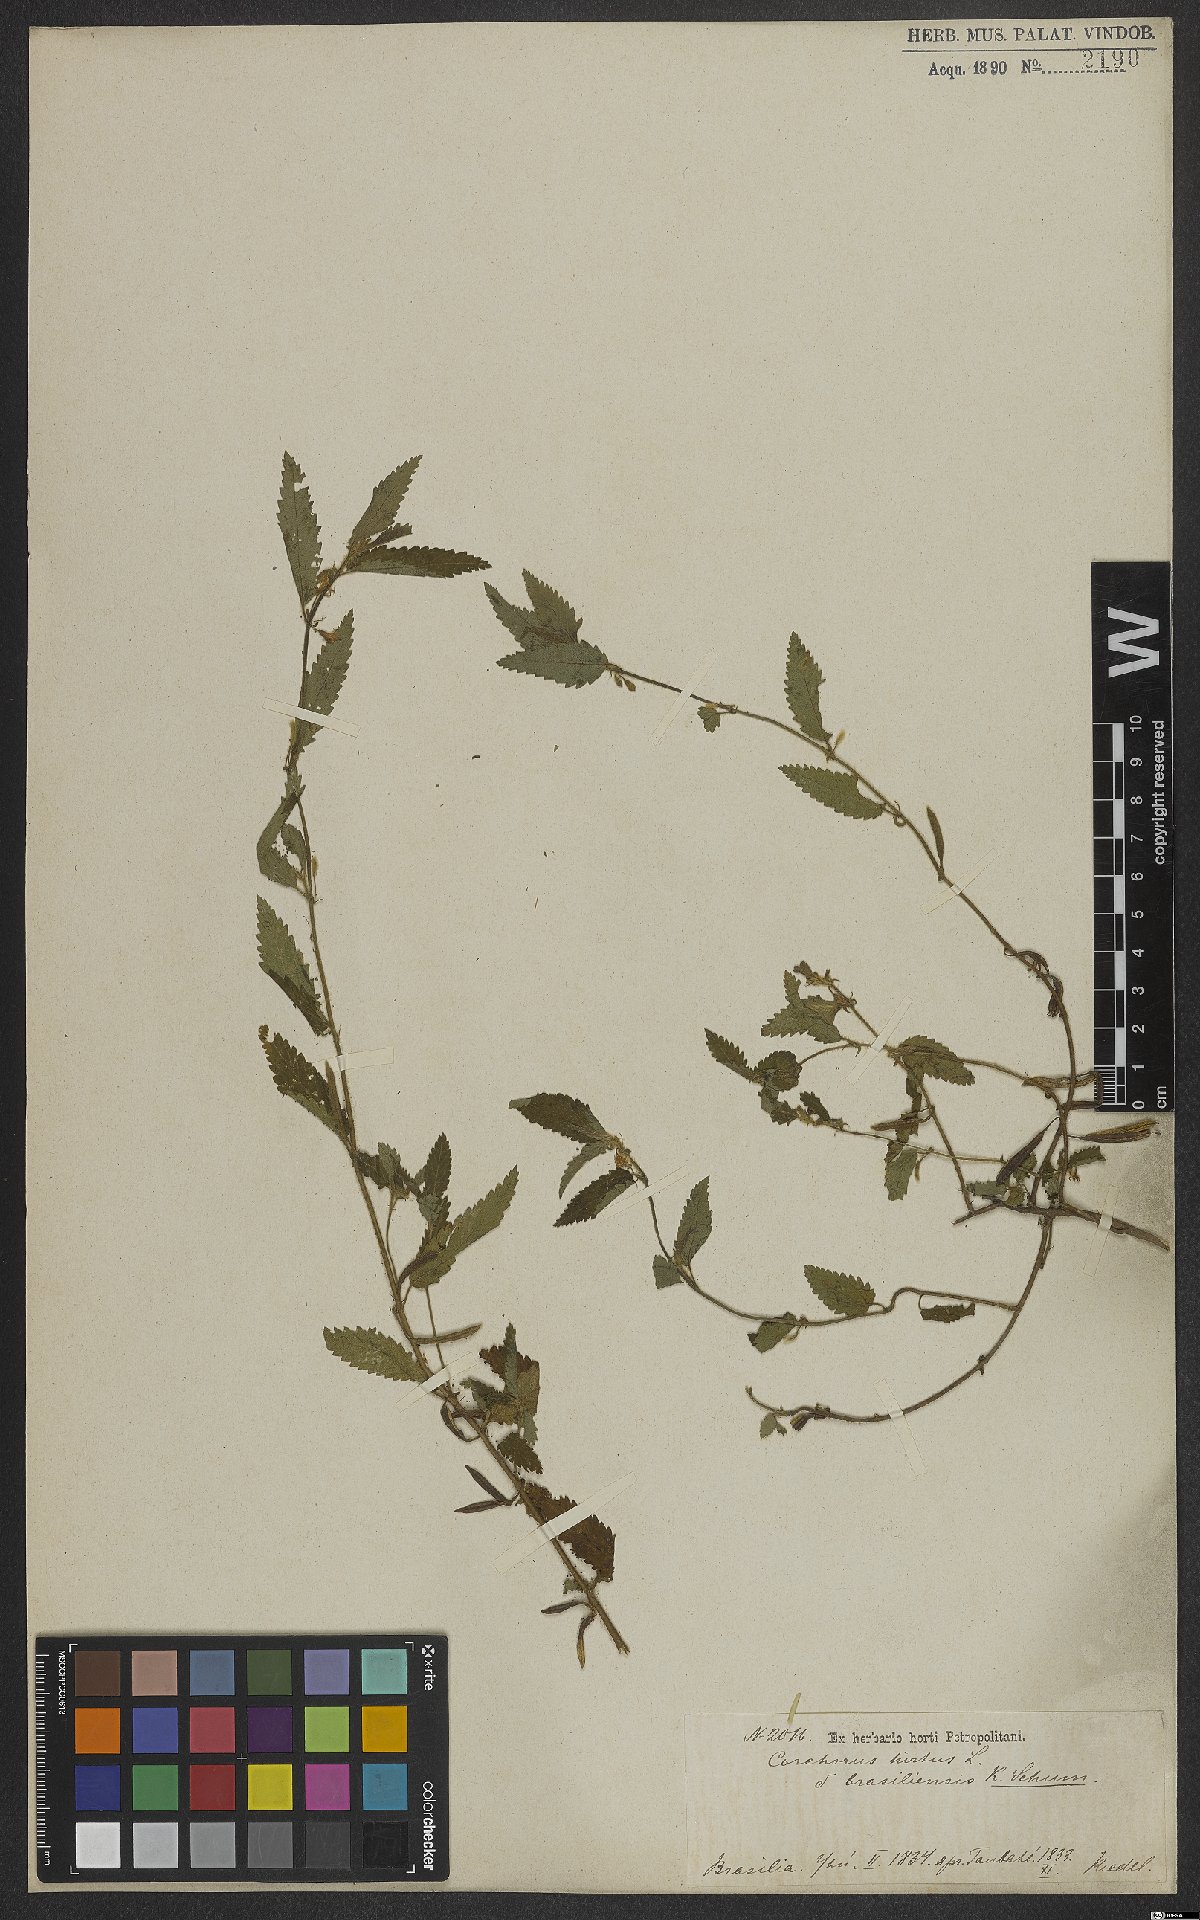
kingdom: Plantae
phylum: Tracheophyta
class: Magnoliopsida
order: Malvales
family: Malvaceae
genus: Corchorus
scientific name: Corchorus hirtus
